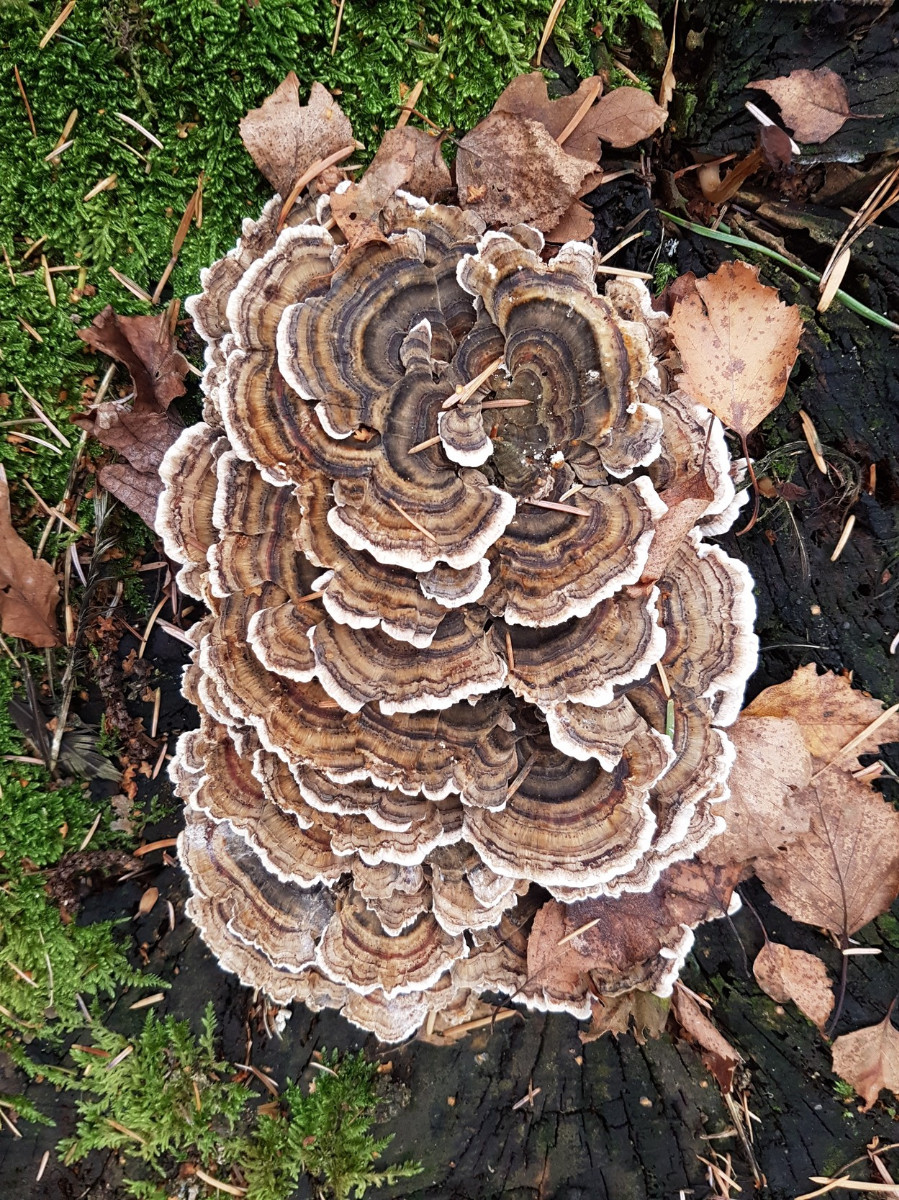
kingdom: Fungi
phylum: Basidiomycota
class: Agaricomycetes
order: Polyporales
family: Polyporaceae
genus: Trametes
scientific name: Trametes versicolor
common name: broget læderporesvamp
